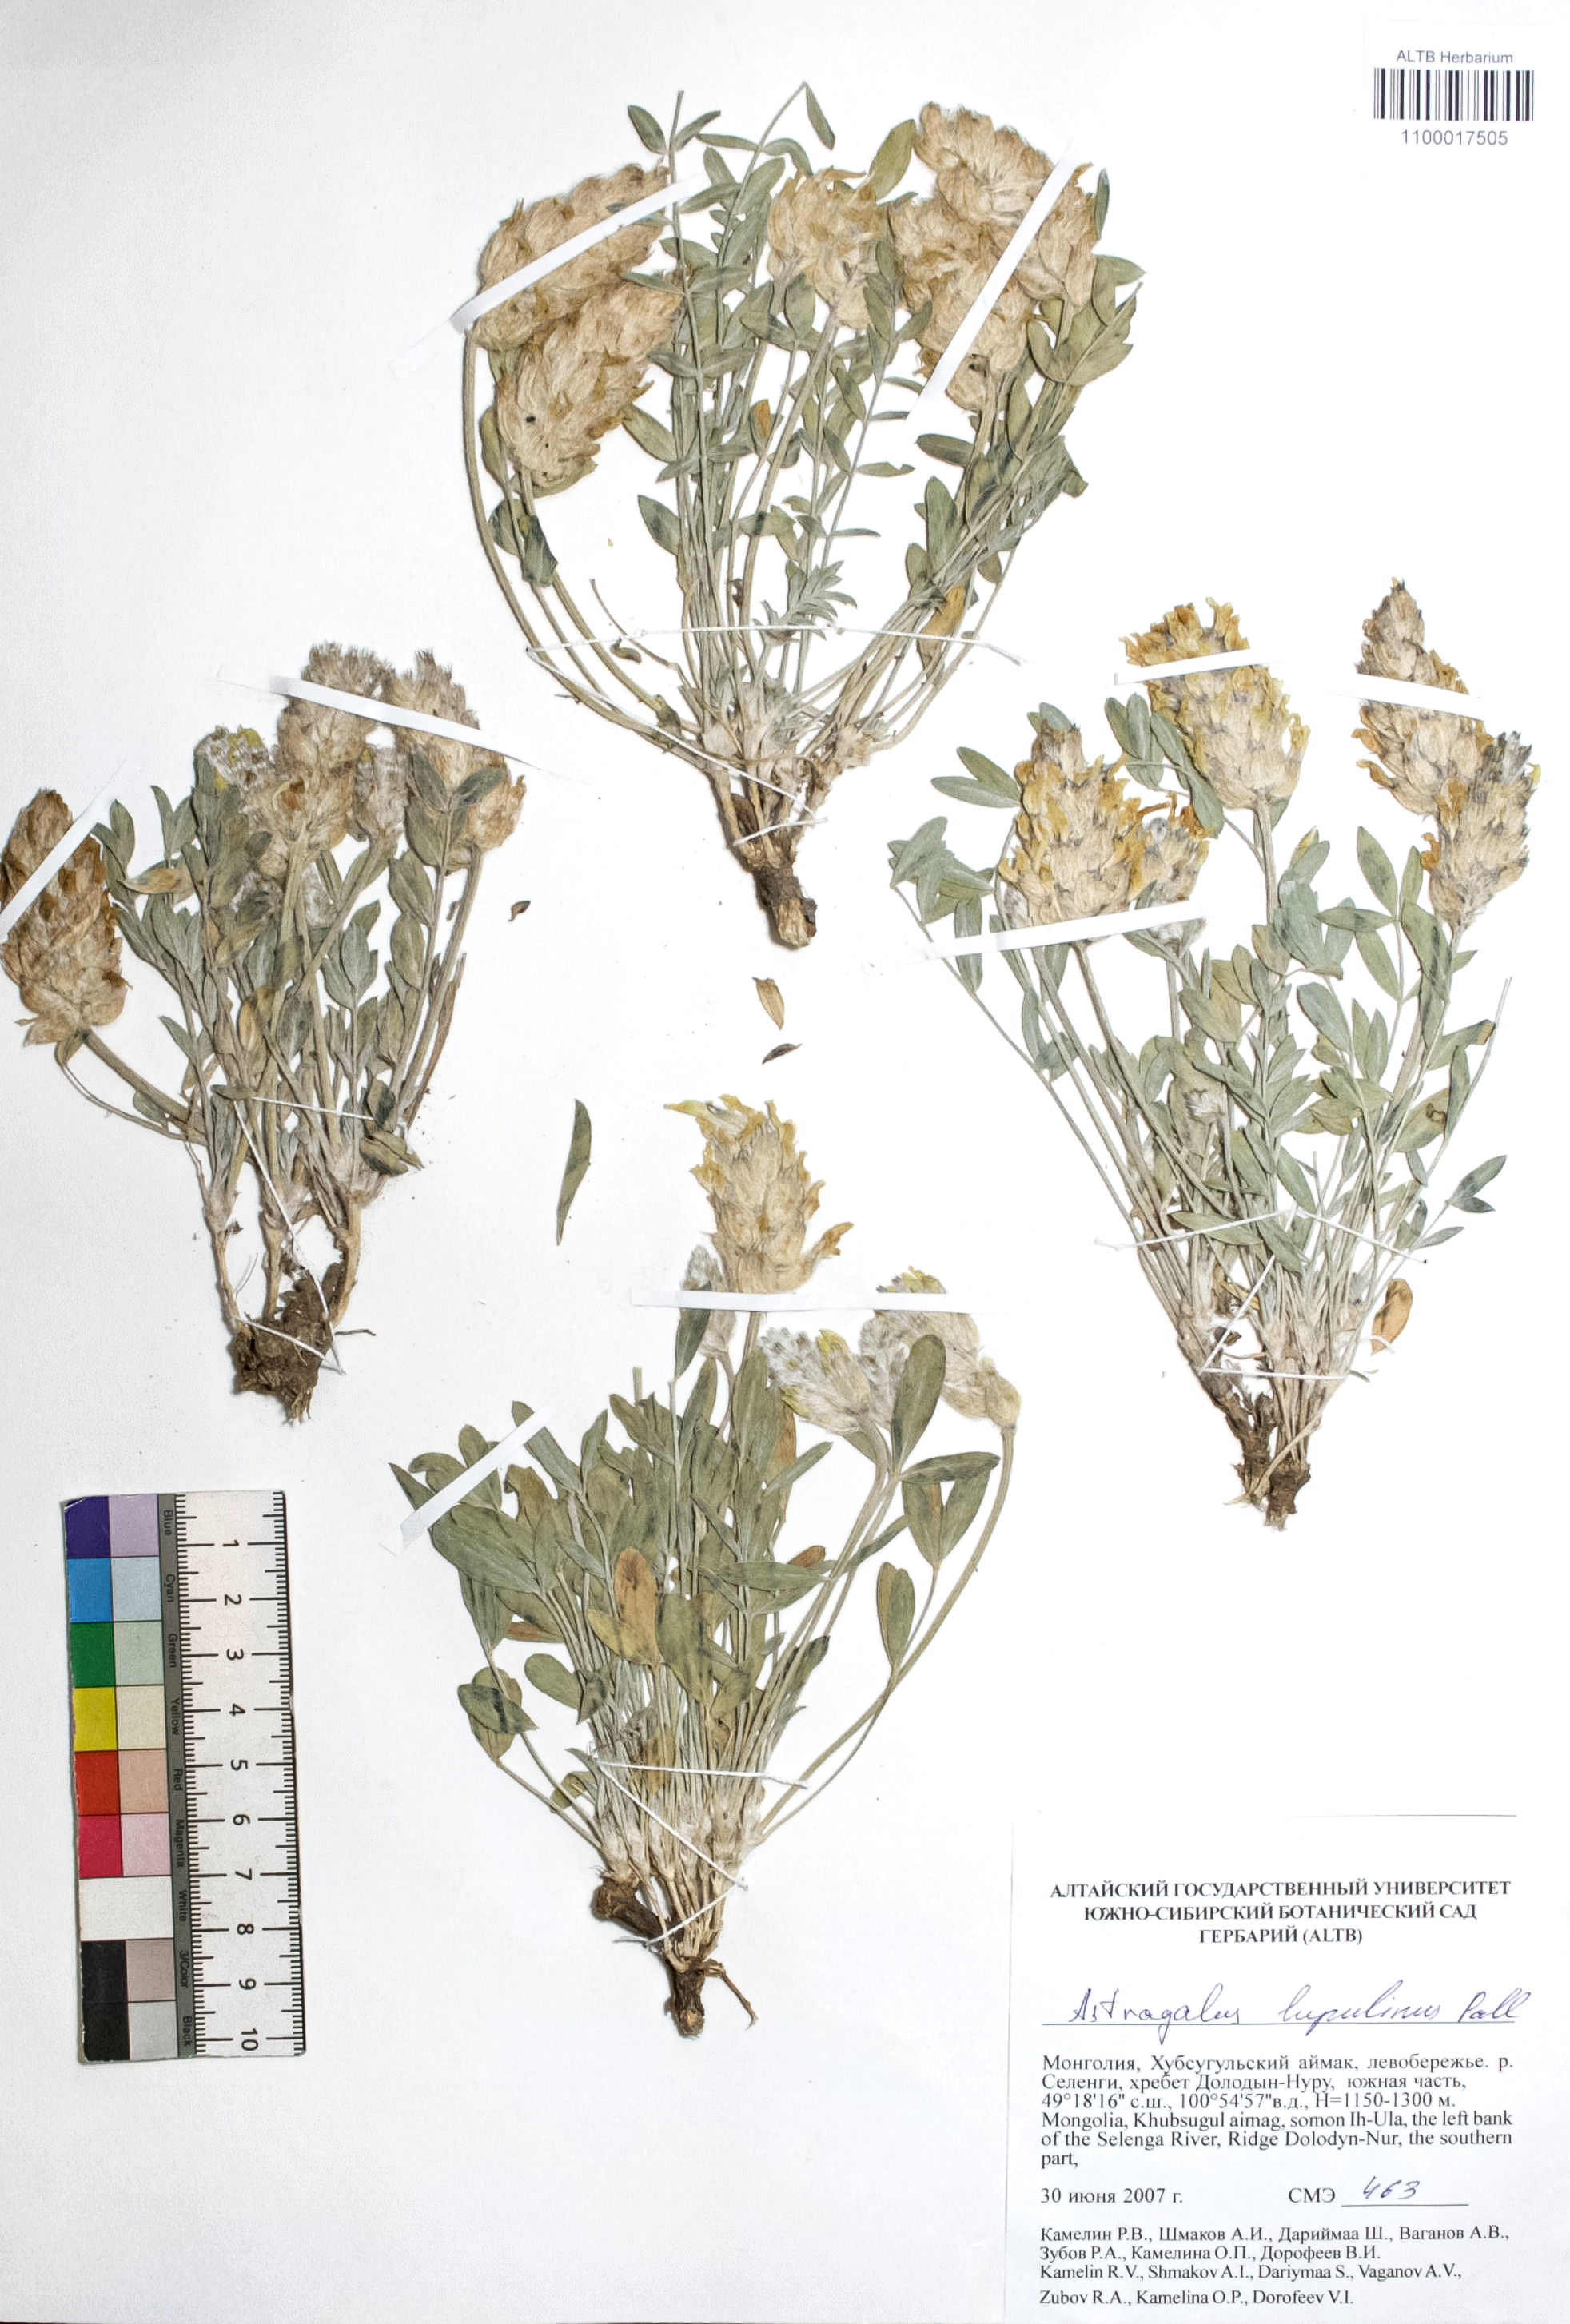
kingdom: Plantae
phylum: Tracheophyta
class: Magnoliopsida
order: Fabales
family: Fabaceae
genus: Astragalus
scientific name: Astragalus lupulinus
